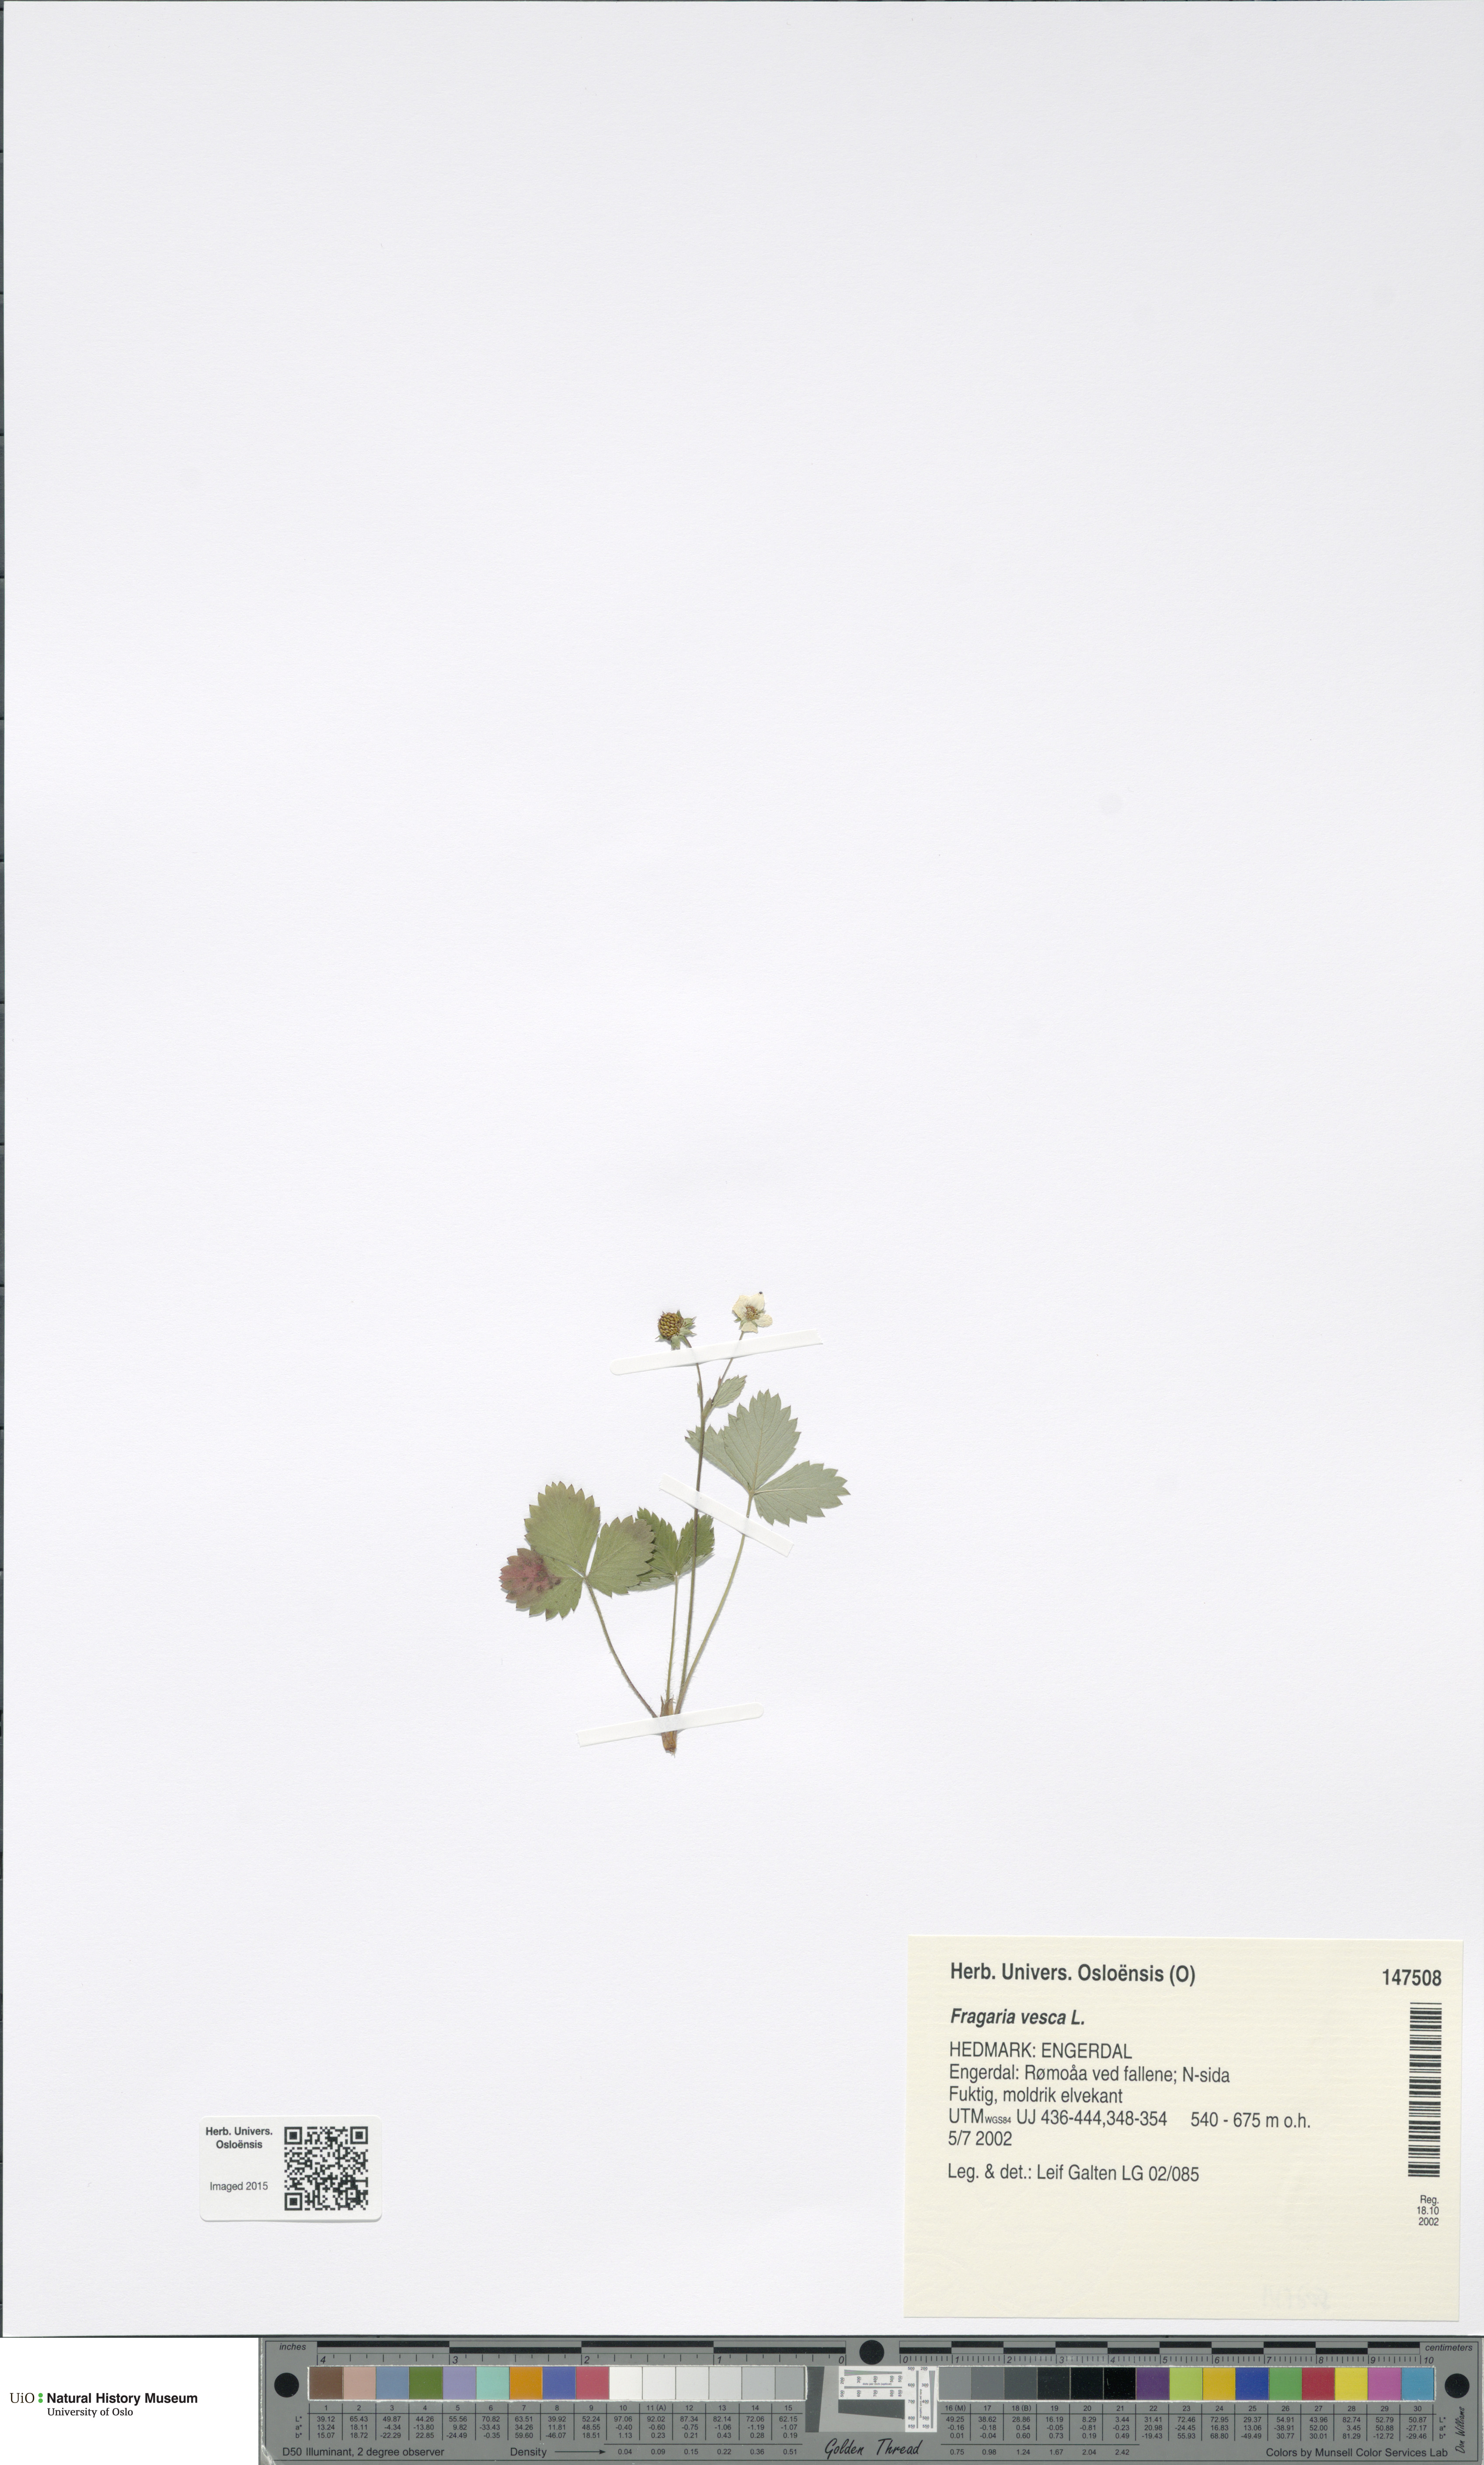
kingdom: Plantae
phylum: Tracheophyta
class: Magnoliopsida
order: Rosales
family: Rosaceae
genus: Fragaria
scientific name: Fragaria vesca
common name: Wild strawberry
